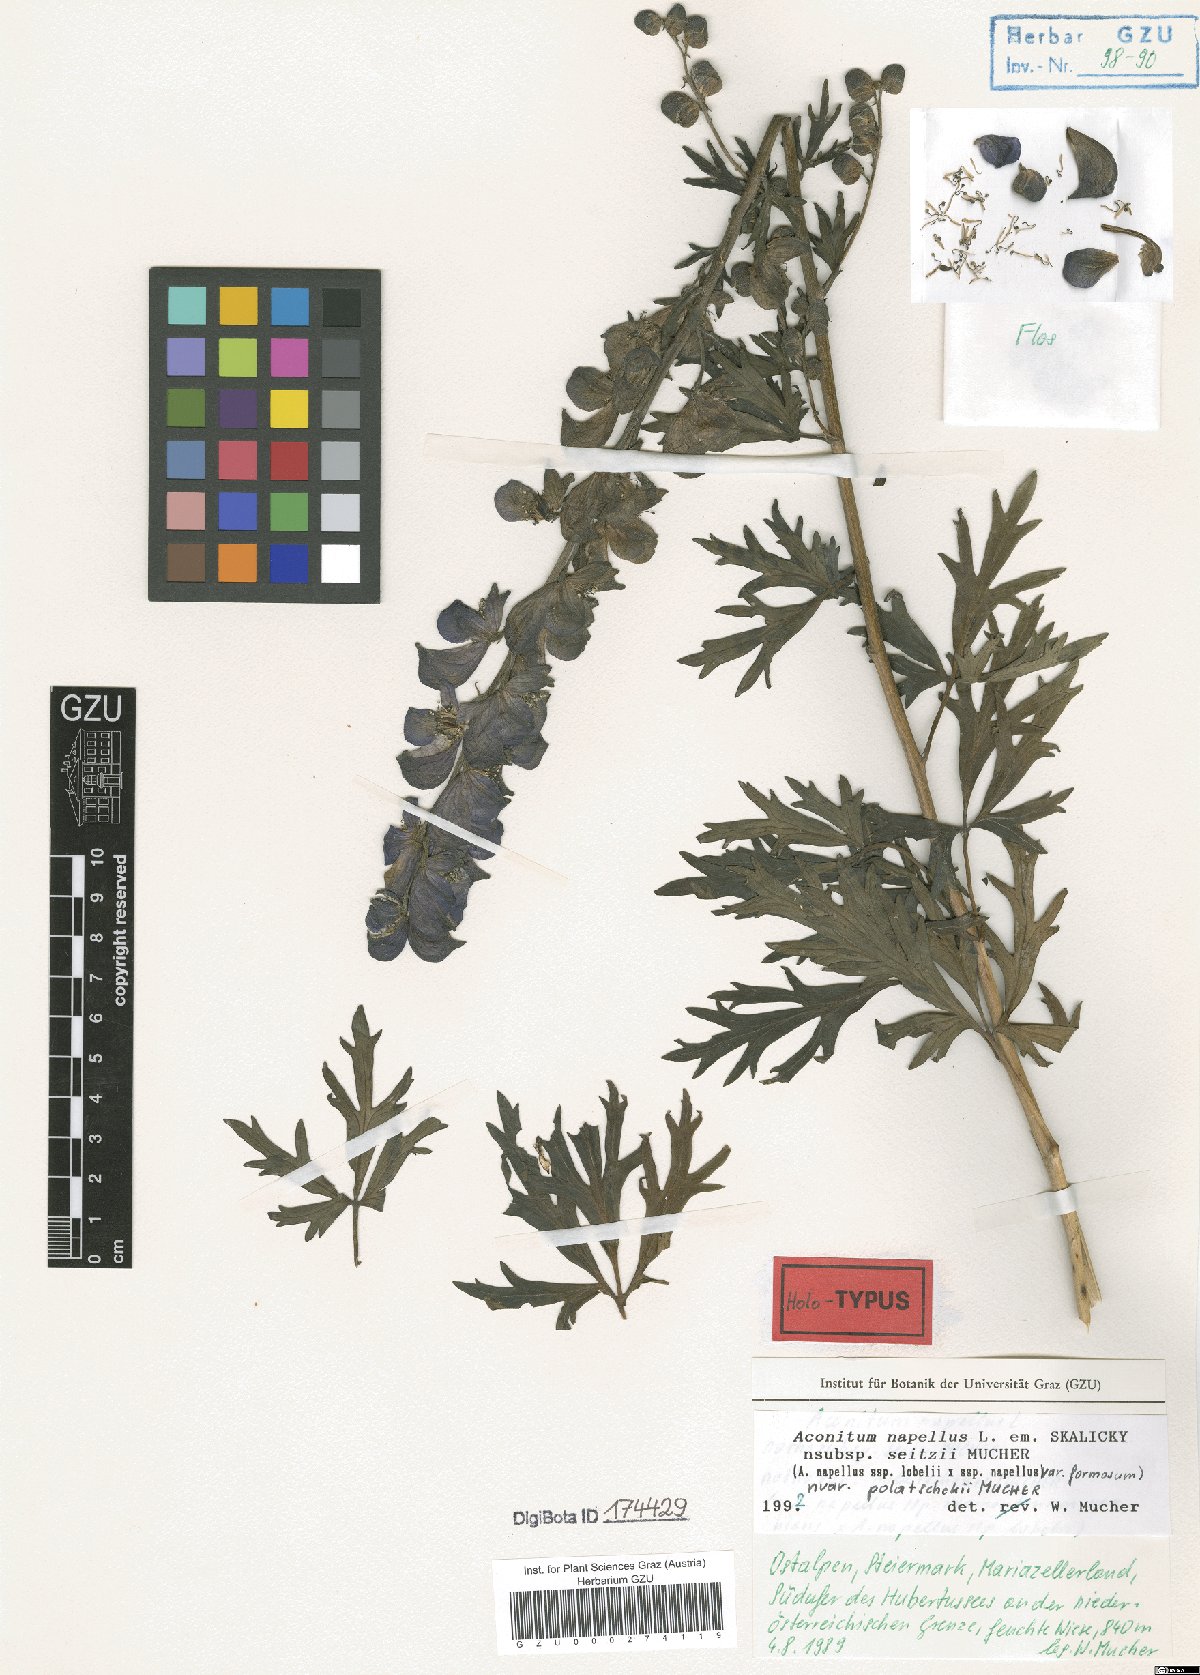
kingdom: Plantae
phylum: Tracheophyta
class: Magnoliopsida
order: Ranunculales
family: Ranunculaceae
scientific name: Ranunculaceae
